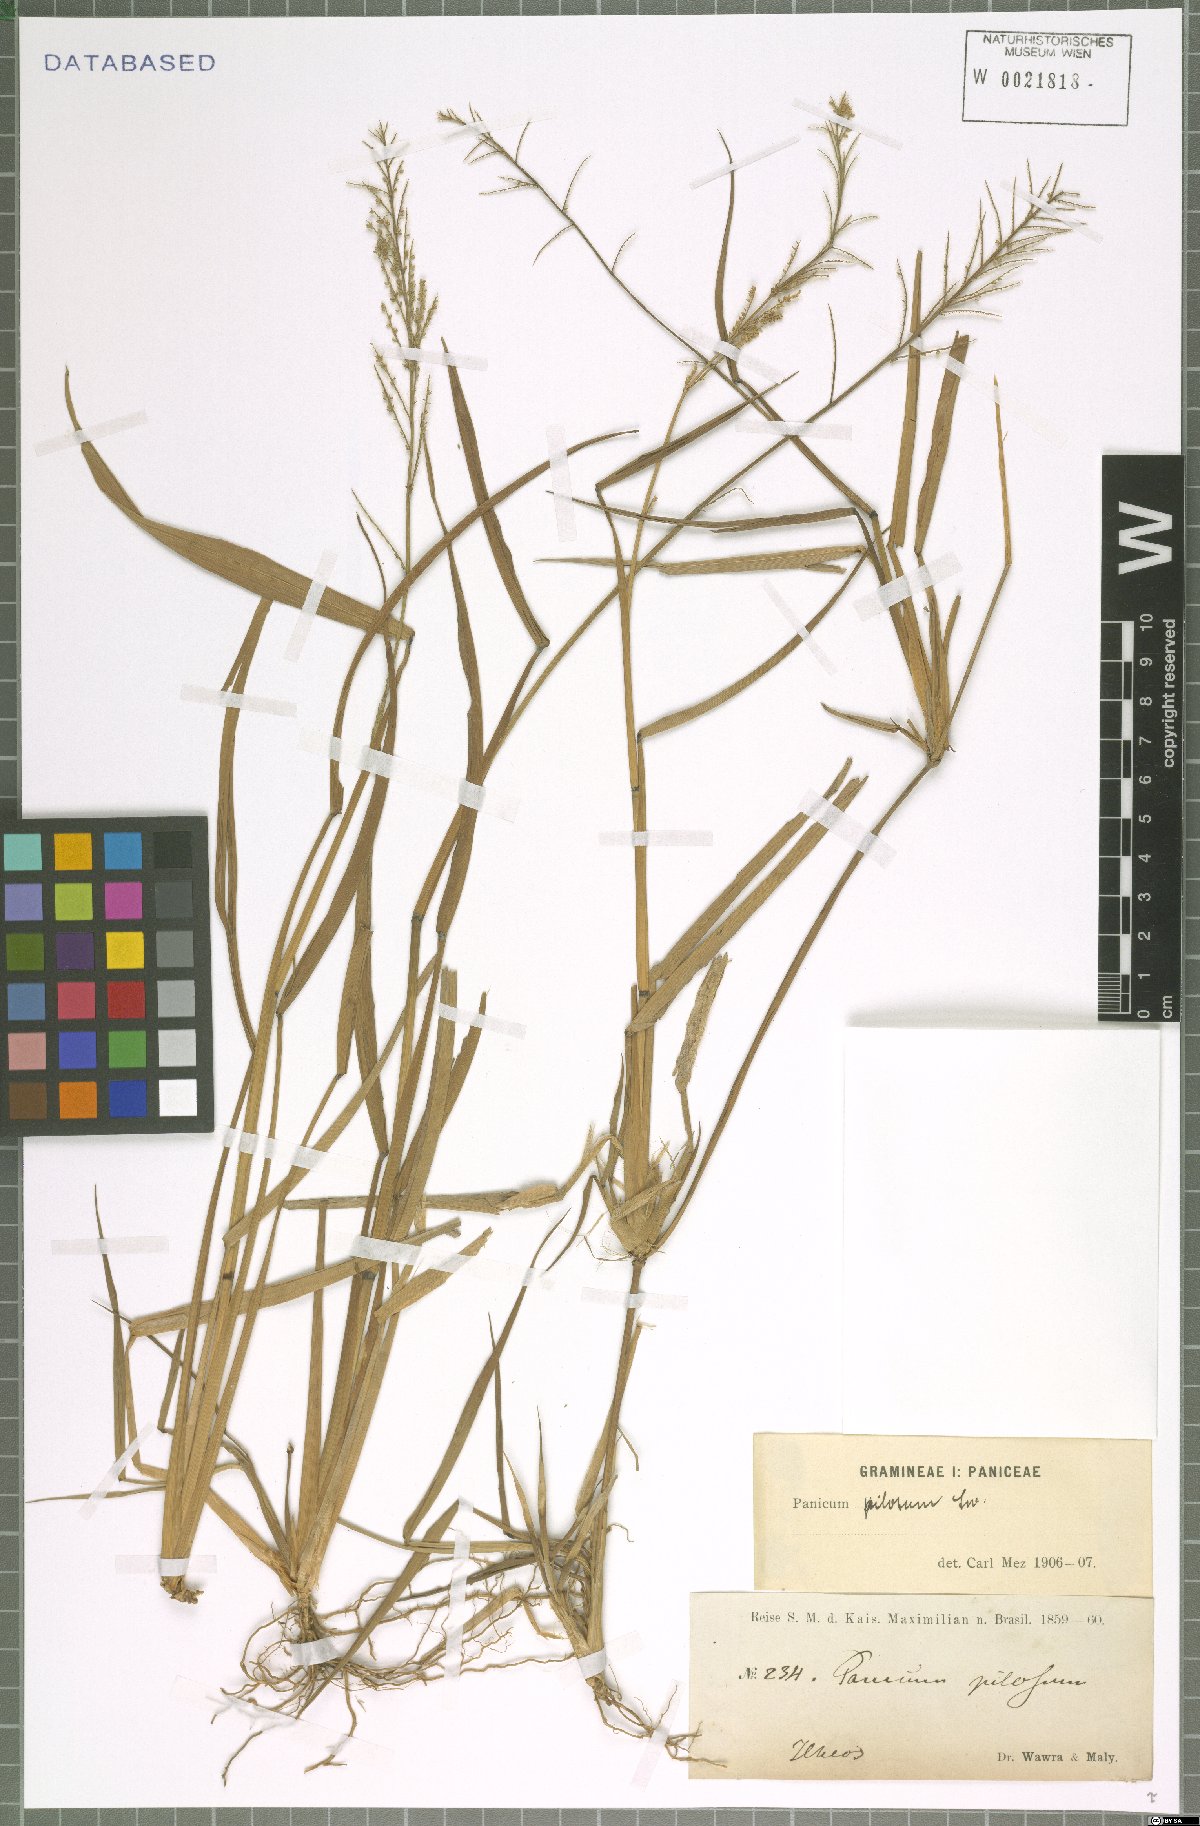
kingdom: Plantae
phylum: Tracheophyta
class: Liliopsida
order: Poales
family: Poaceae
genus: Rugoloa
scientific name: Rugoloa pilosa
